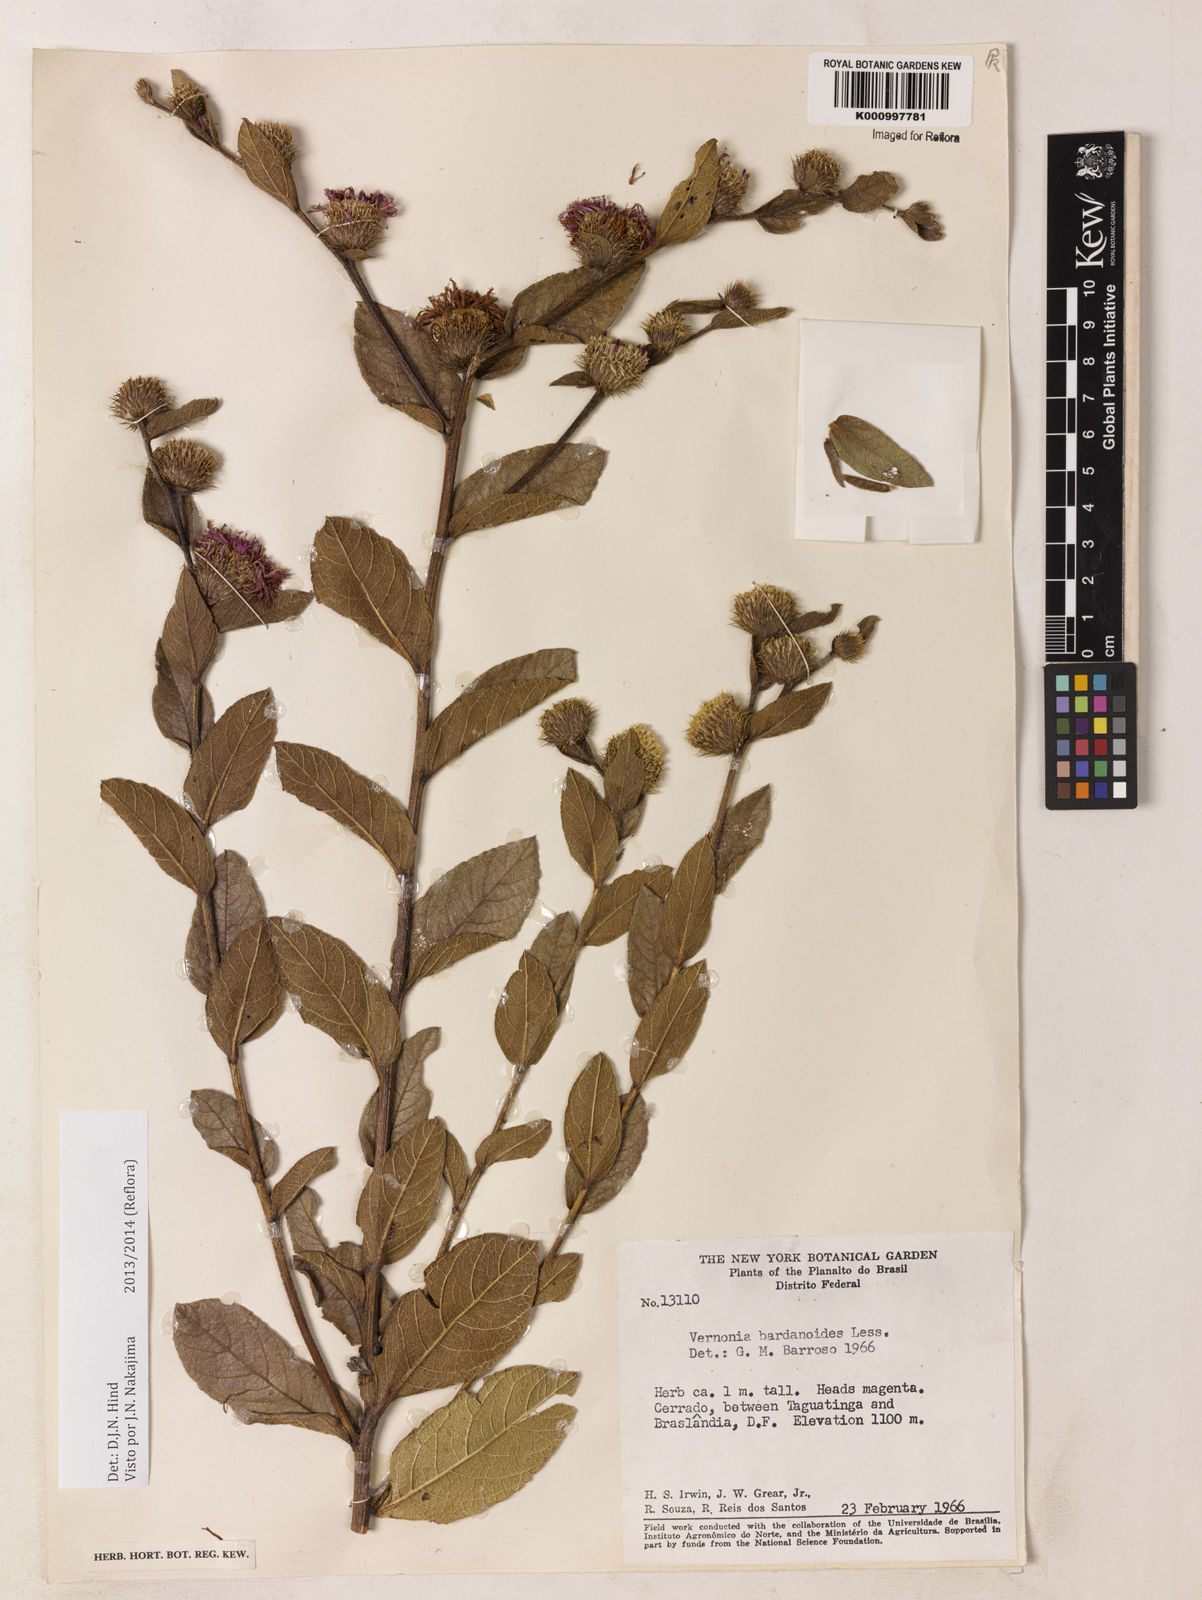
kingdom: Plantae
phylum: Tracheophyta
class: Magnoliopsida
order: Asterales
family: Asteraceae
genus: Lessingianthus
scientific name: Lessingianthus bardanioides
